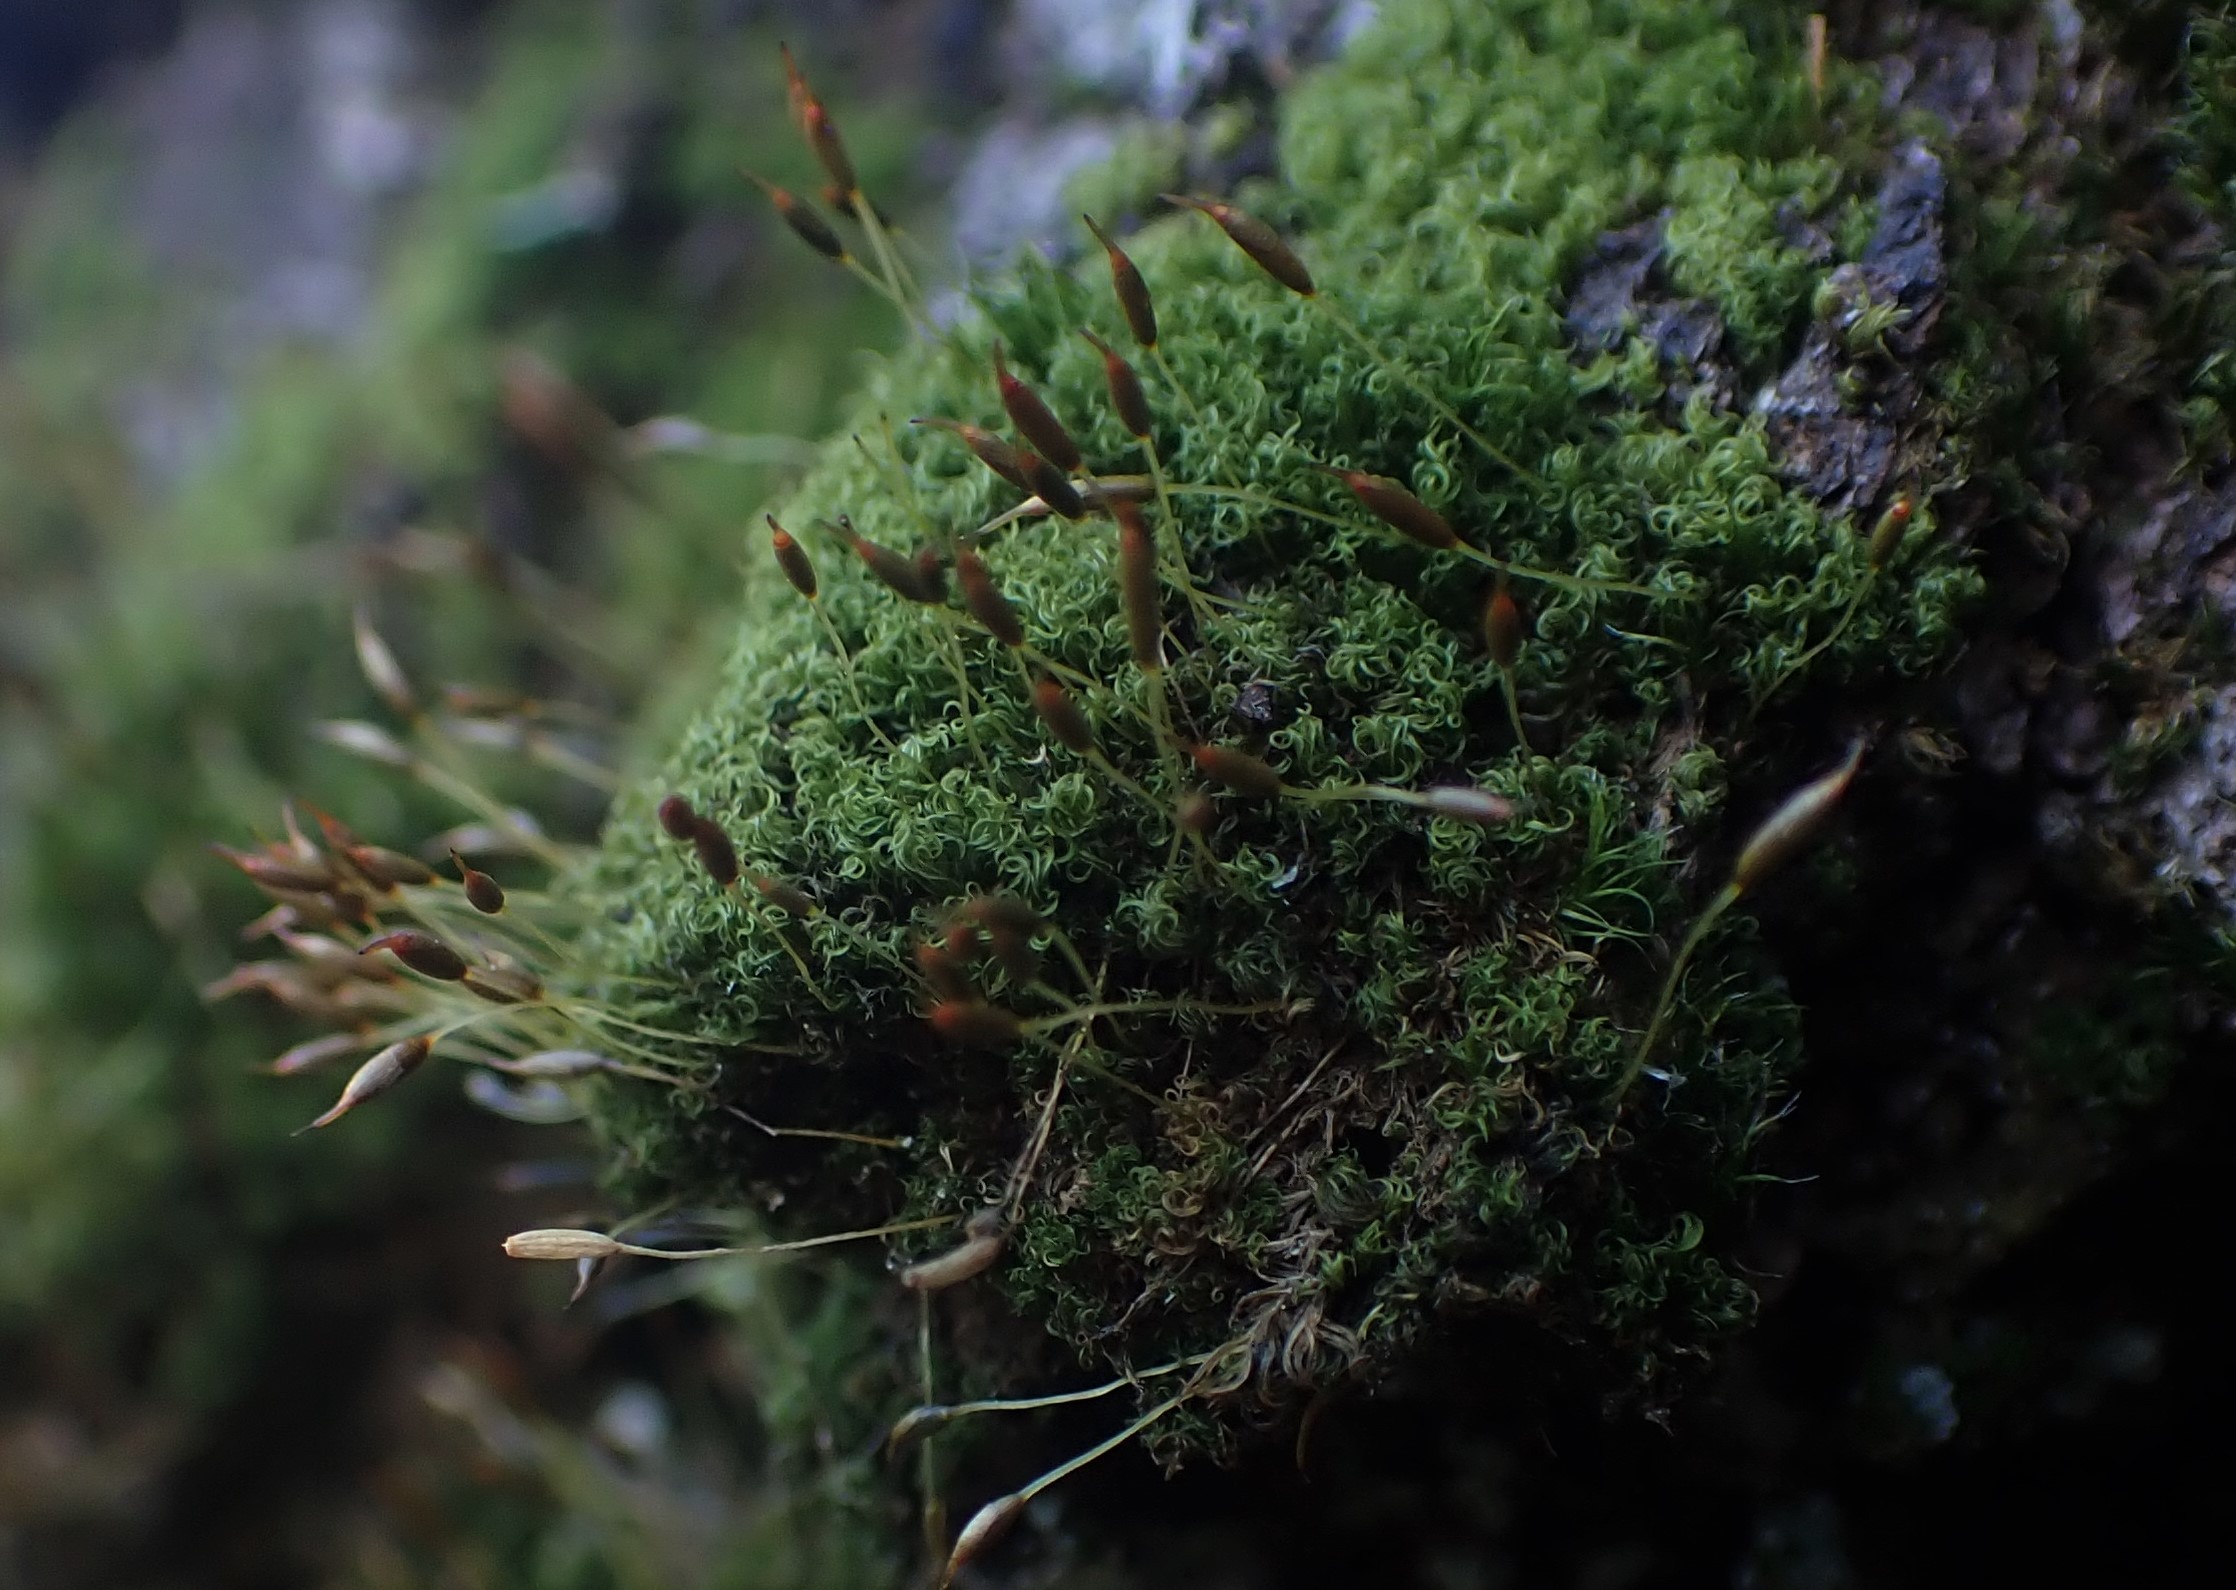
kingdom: Plantae
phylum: Bryophyta
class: Bryopsida
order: Dicranales
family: Rhabdoweisiaceae
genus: Dicranoweisia
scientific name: Dicranoweisia cirrata
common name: Almindelig krøltuemos
